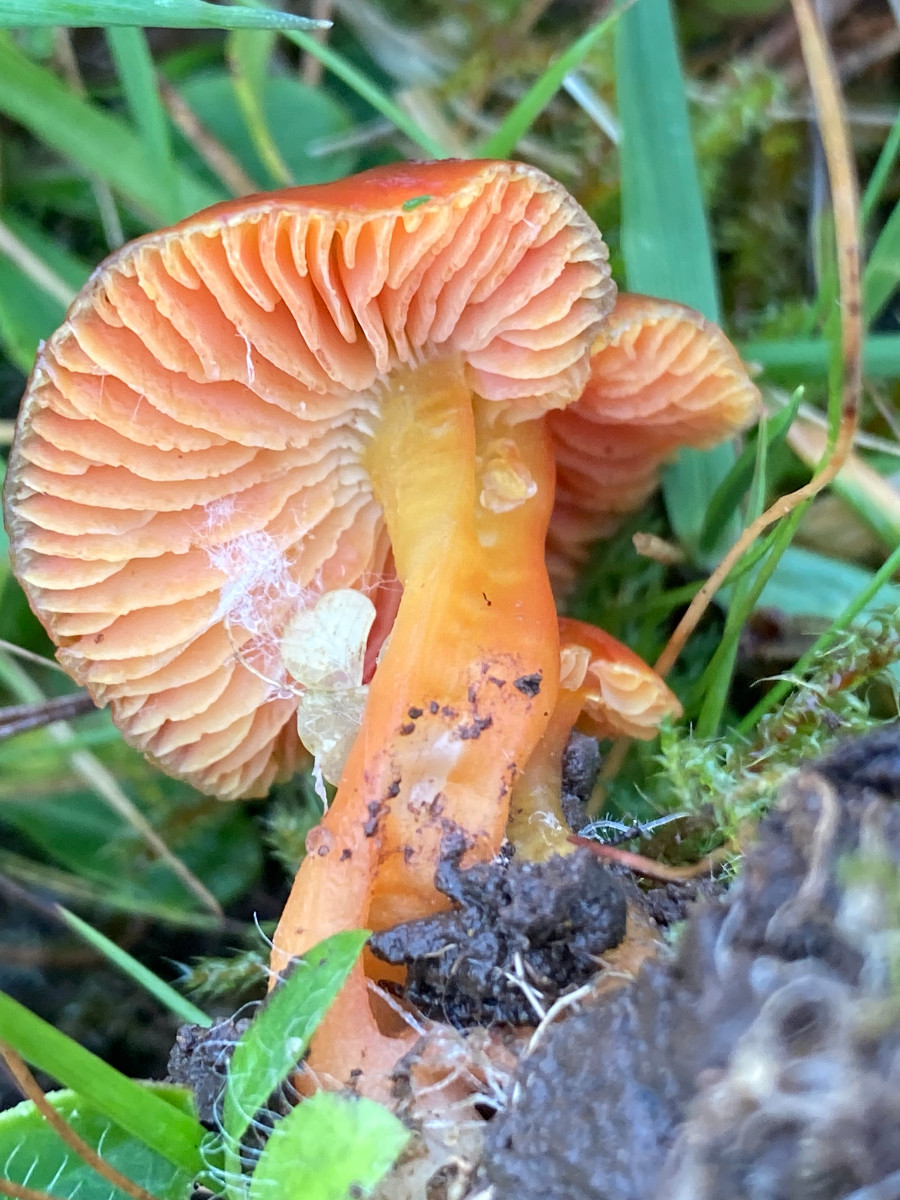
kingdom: Fungi
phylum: Basidiomycota
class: Agaricomycetes
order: Agaricales
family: Hygrophoraceae
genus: Hygrocybe
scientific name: Hygrocybe phaeococcinea
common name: sortdugget vokshat
